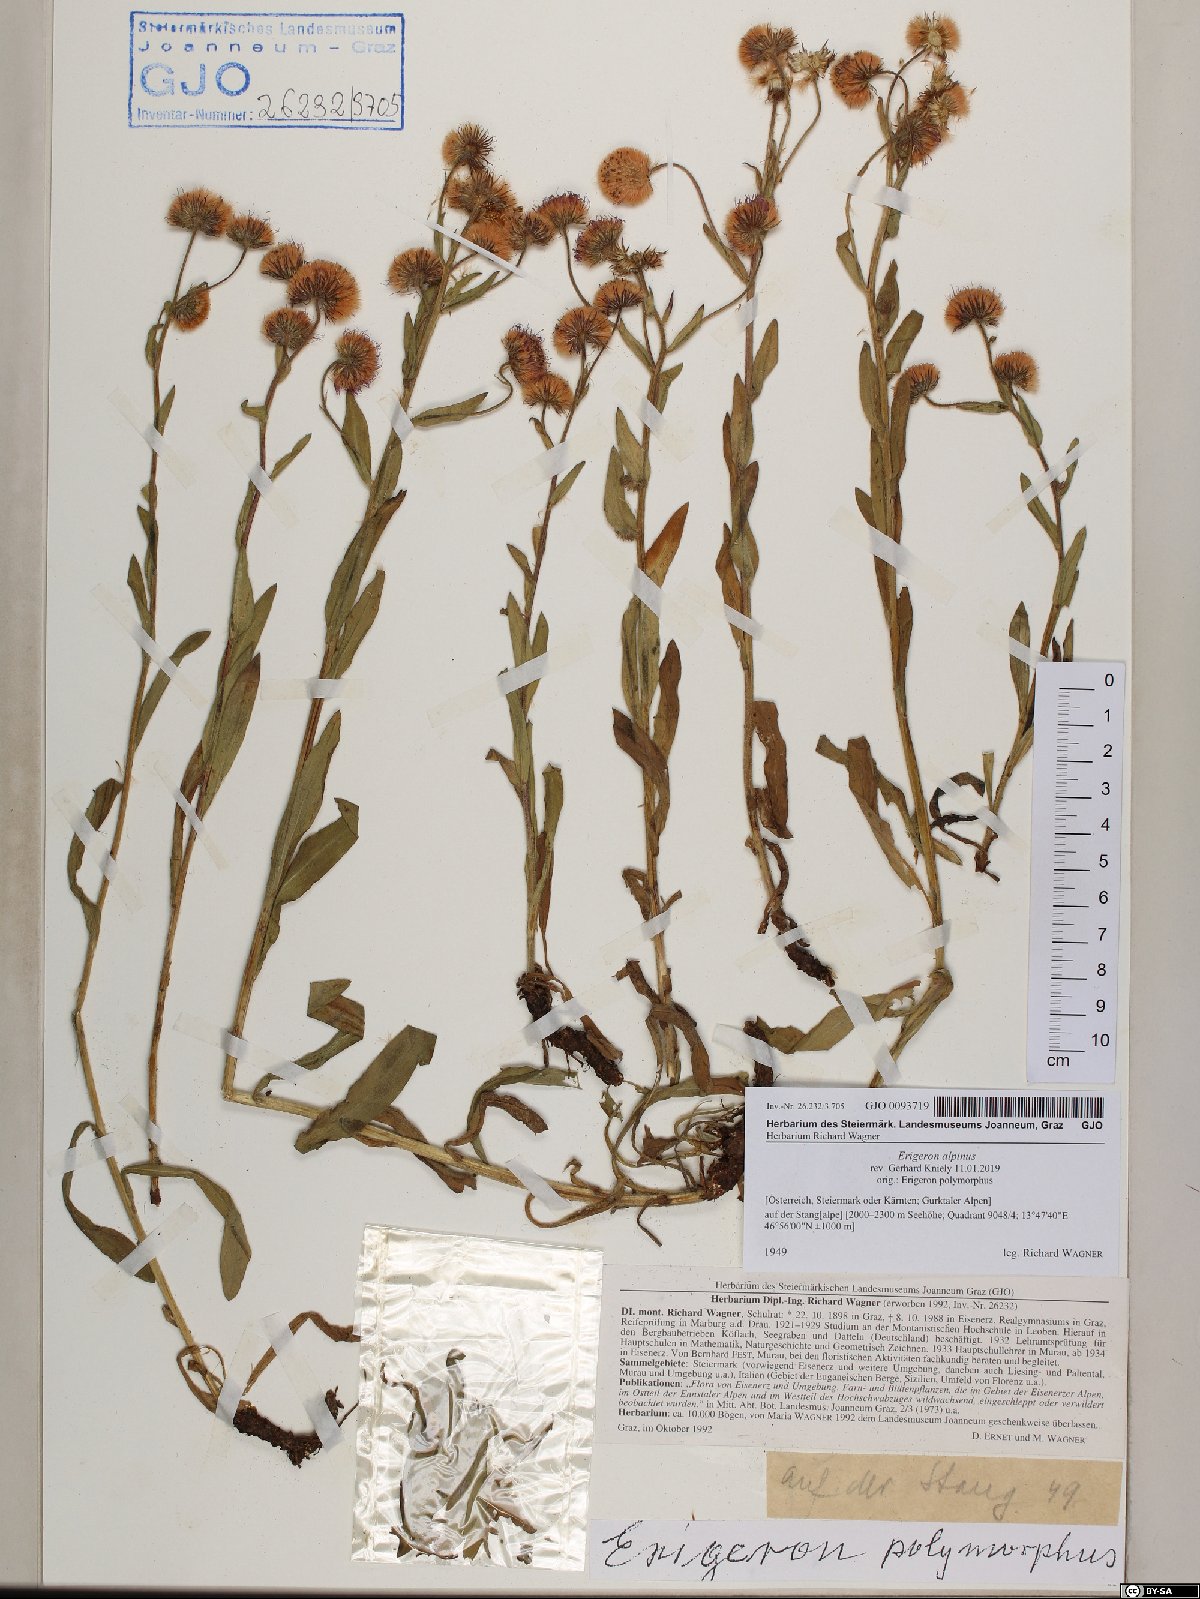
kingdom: Plantae
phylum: Tracheophyta
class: Magnoliopsida
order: Asterales
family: Asteraceae
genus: Erigeron
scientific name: Erigeron alpinus
